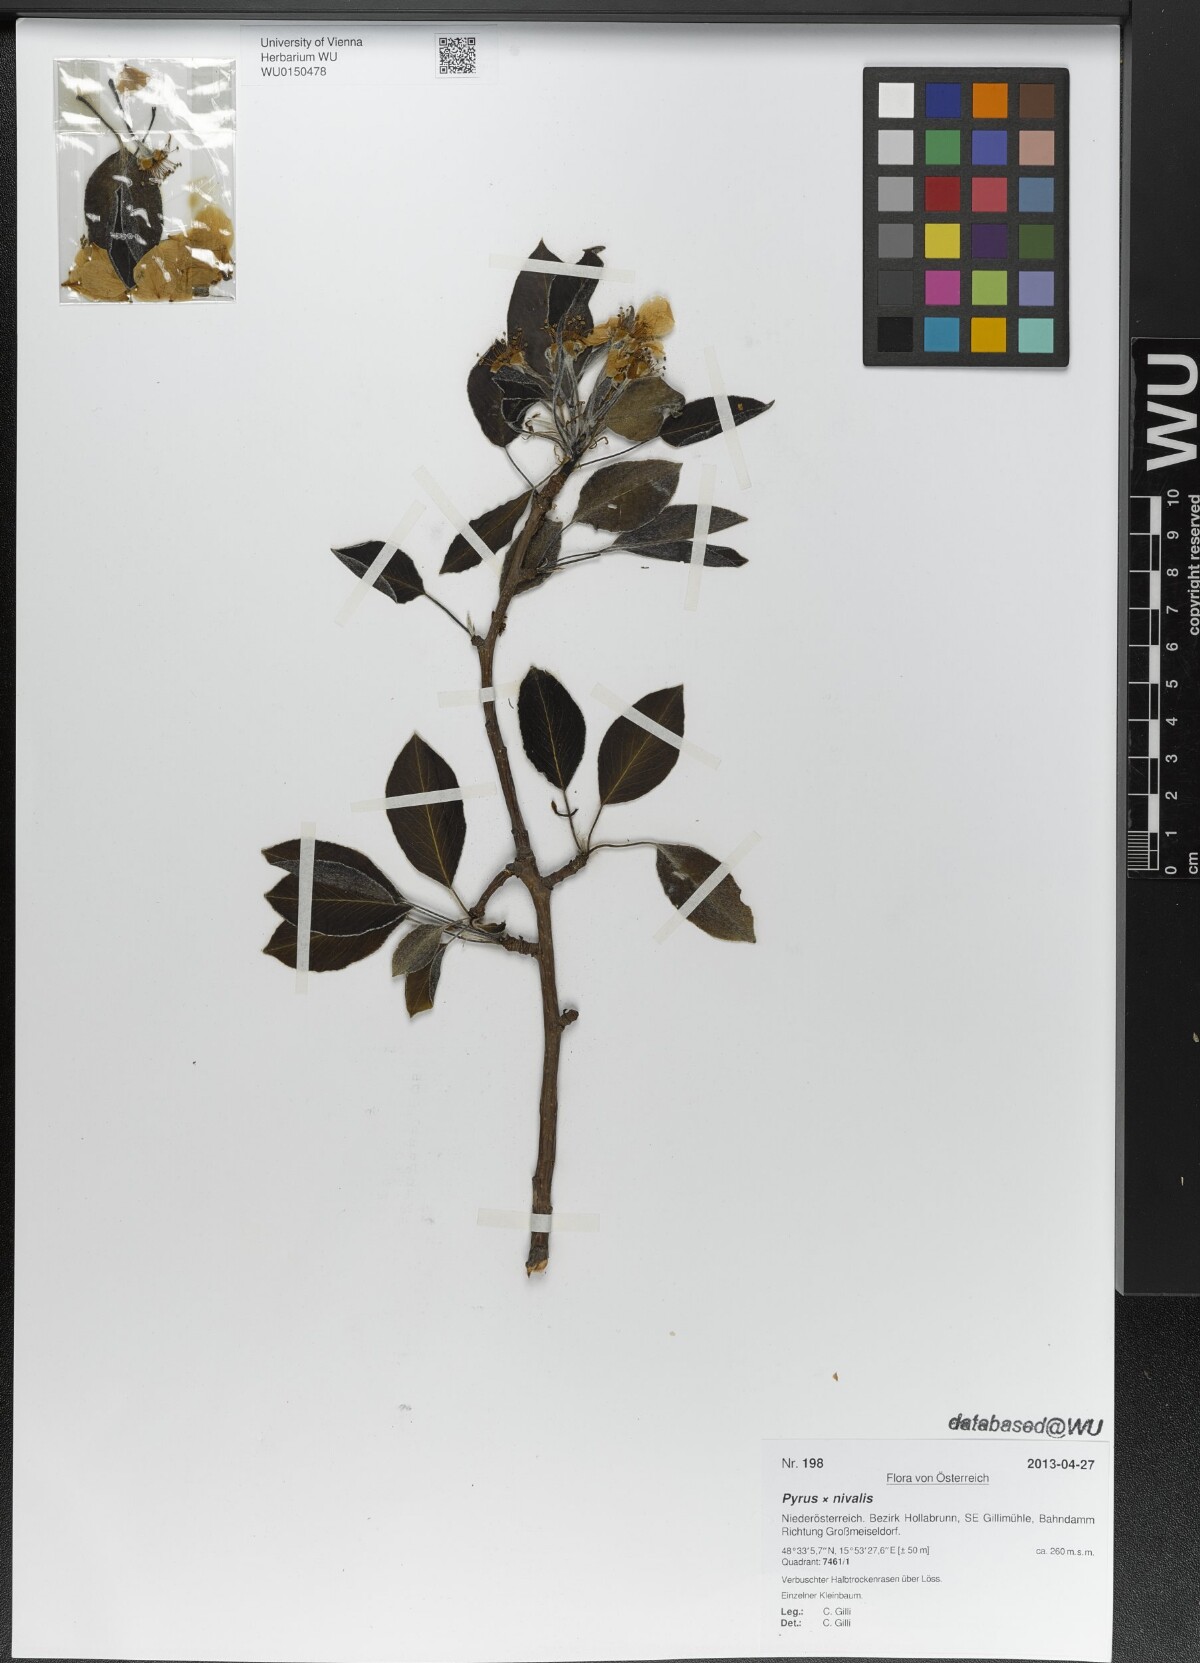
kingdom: Plantae
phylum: Tracheophyta
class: Magnoliopsida
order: Rosales
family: Rosaceae
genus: Pyrus
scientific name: Pyrus nivalis
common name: Snow pear
